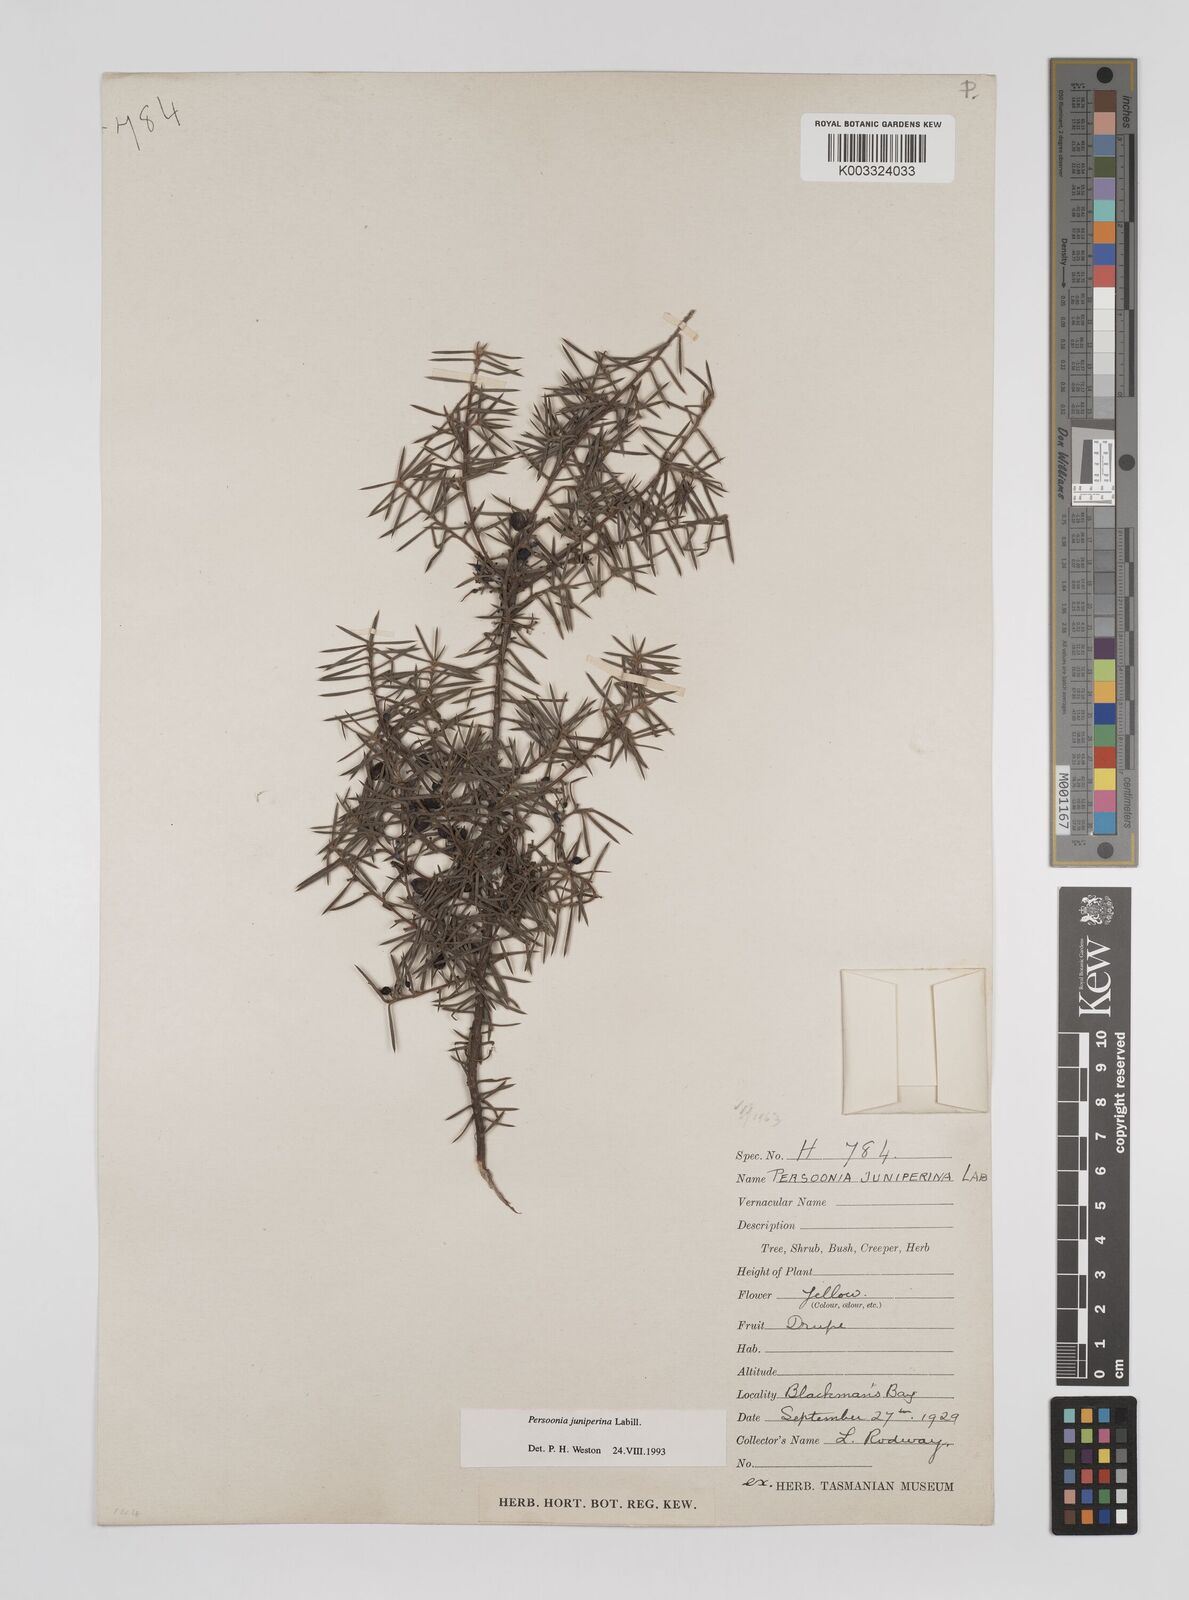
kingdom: Plantae
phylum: Tracheophyta
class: Magnoliopsida
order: Proteales
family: Proteaceae
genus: Persoonia
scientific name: Persoonia juniperina
